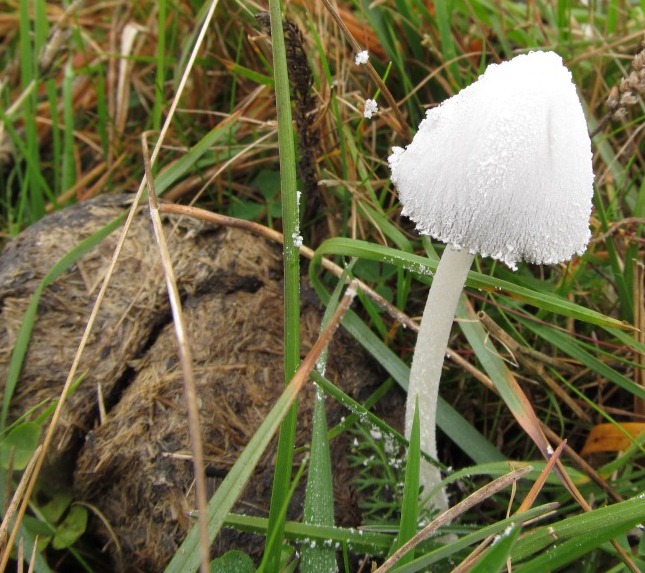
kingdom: Fungi
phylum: Basidiomycota
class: Agaricomycetes
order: Agaricales
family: Psathyrellaceae
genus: Coprinopsis
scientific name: Coprinopsis nivea
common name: snehvid blækhat
